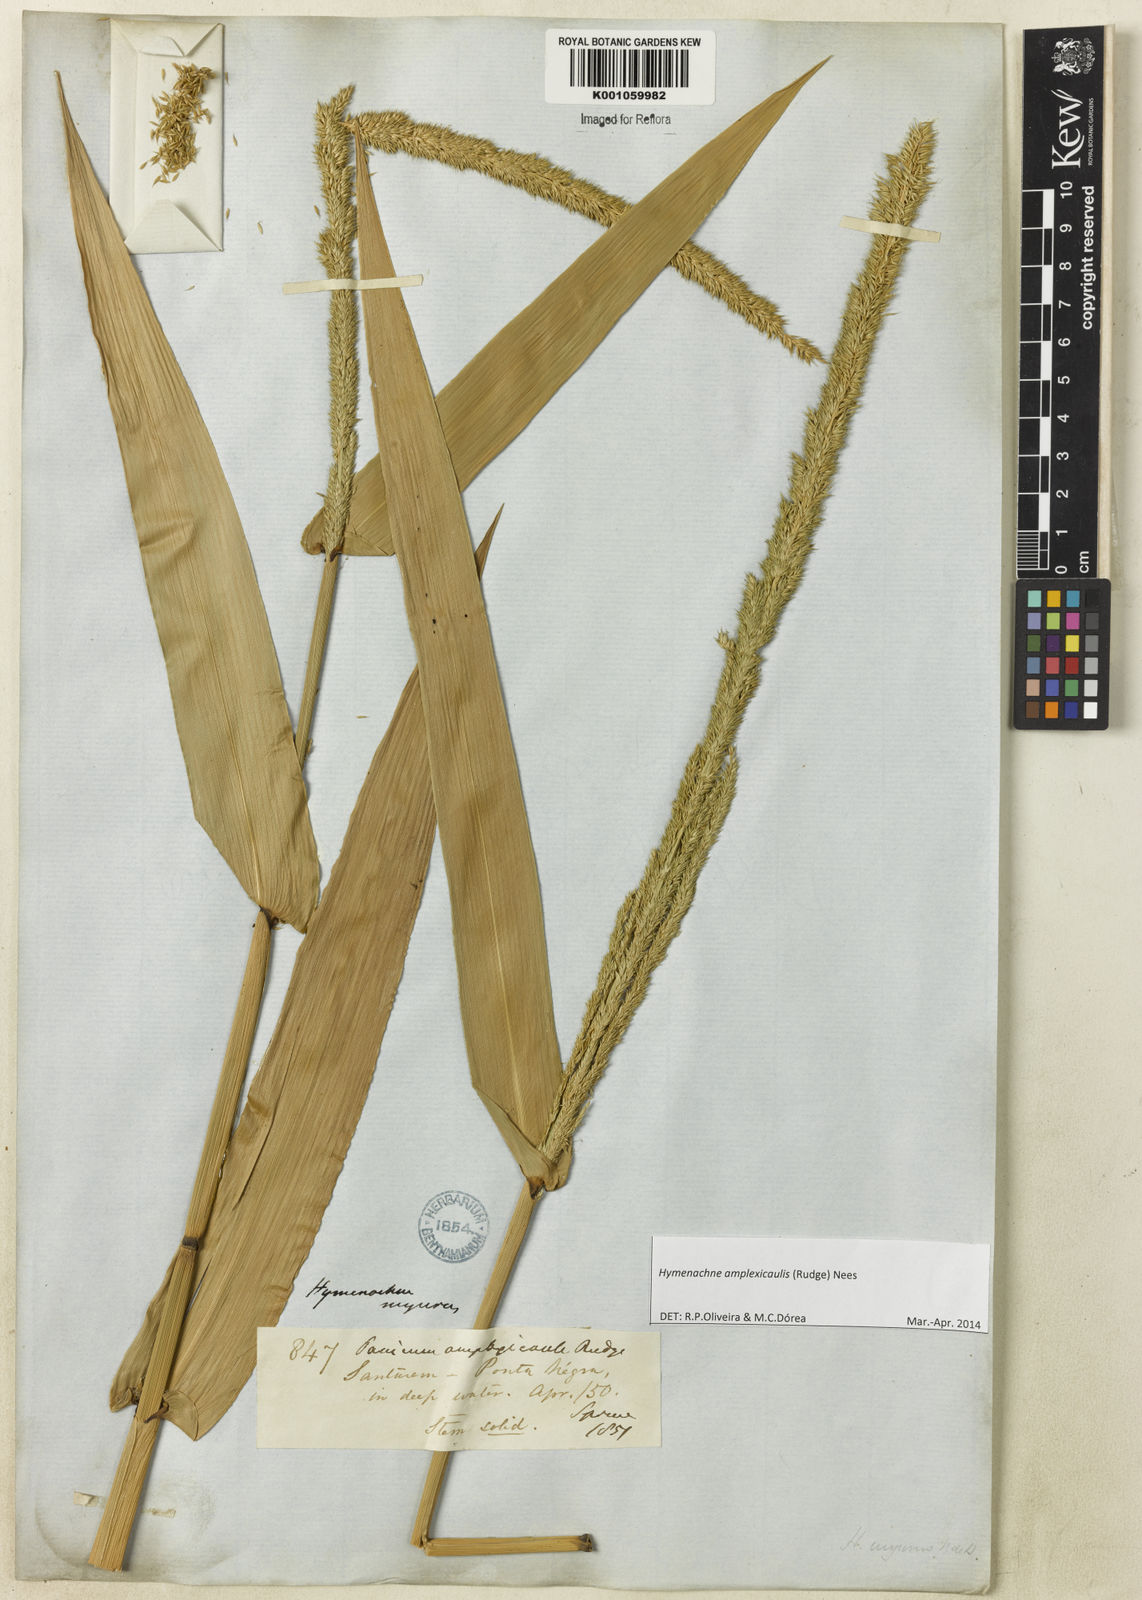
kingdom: Plantae
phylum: Tracheophyta
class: Liliopsida
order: Poales
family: Poaceae
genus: Hymenachne
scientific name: Hymenachne amplexicaulis
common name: Olive hymenachne
